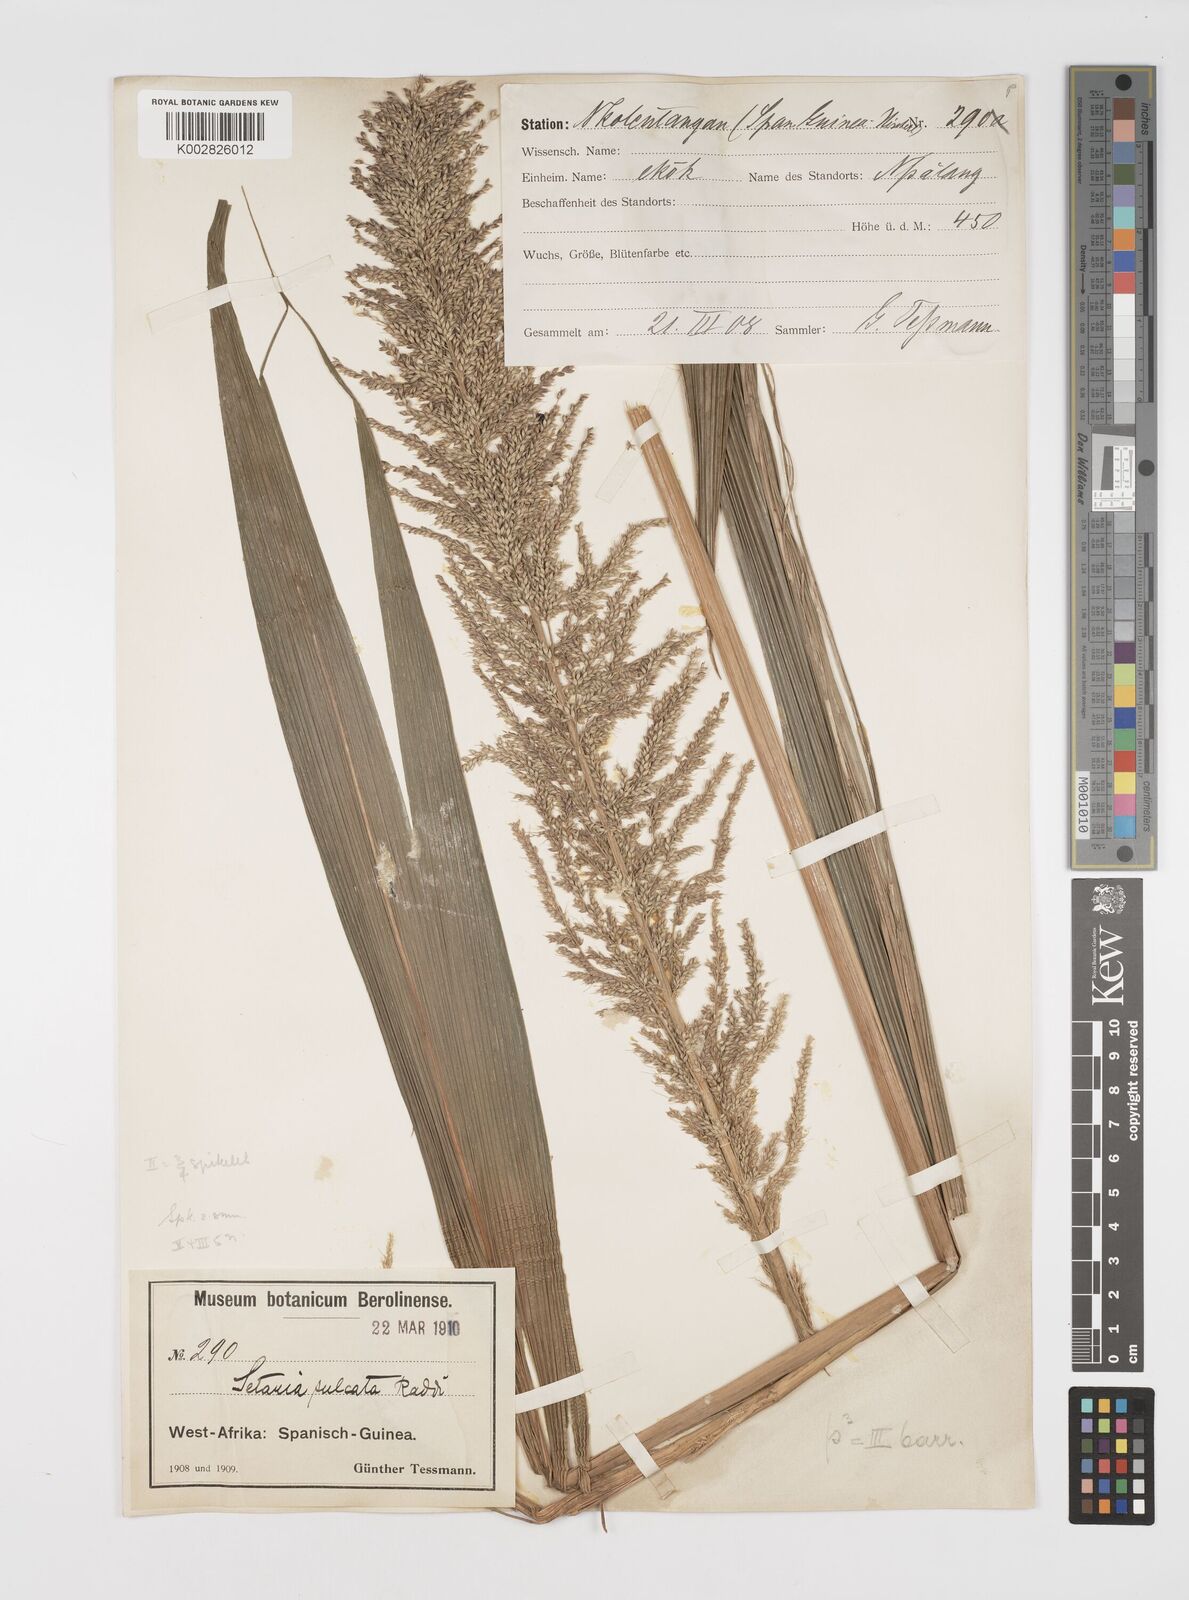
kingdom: Plantae
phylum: Tracheophyta
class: Liliopsida
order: Poales
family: Poaceae
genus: Setaria
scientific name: Setaria megaphylla
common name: Bigleaf bristlegrass
